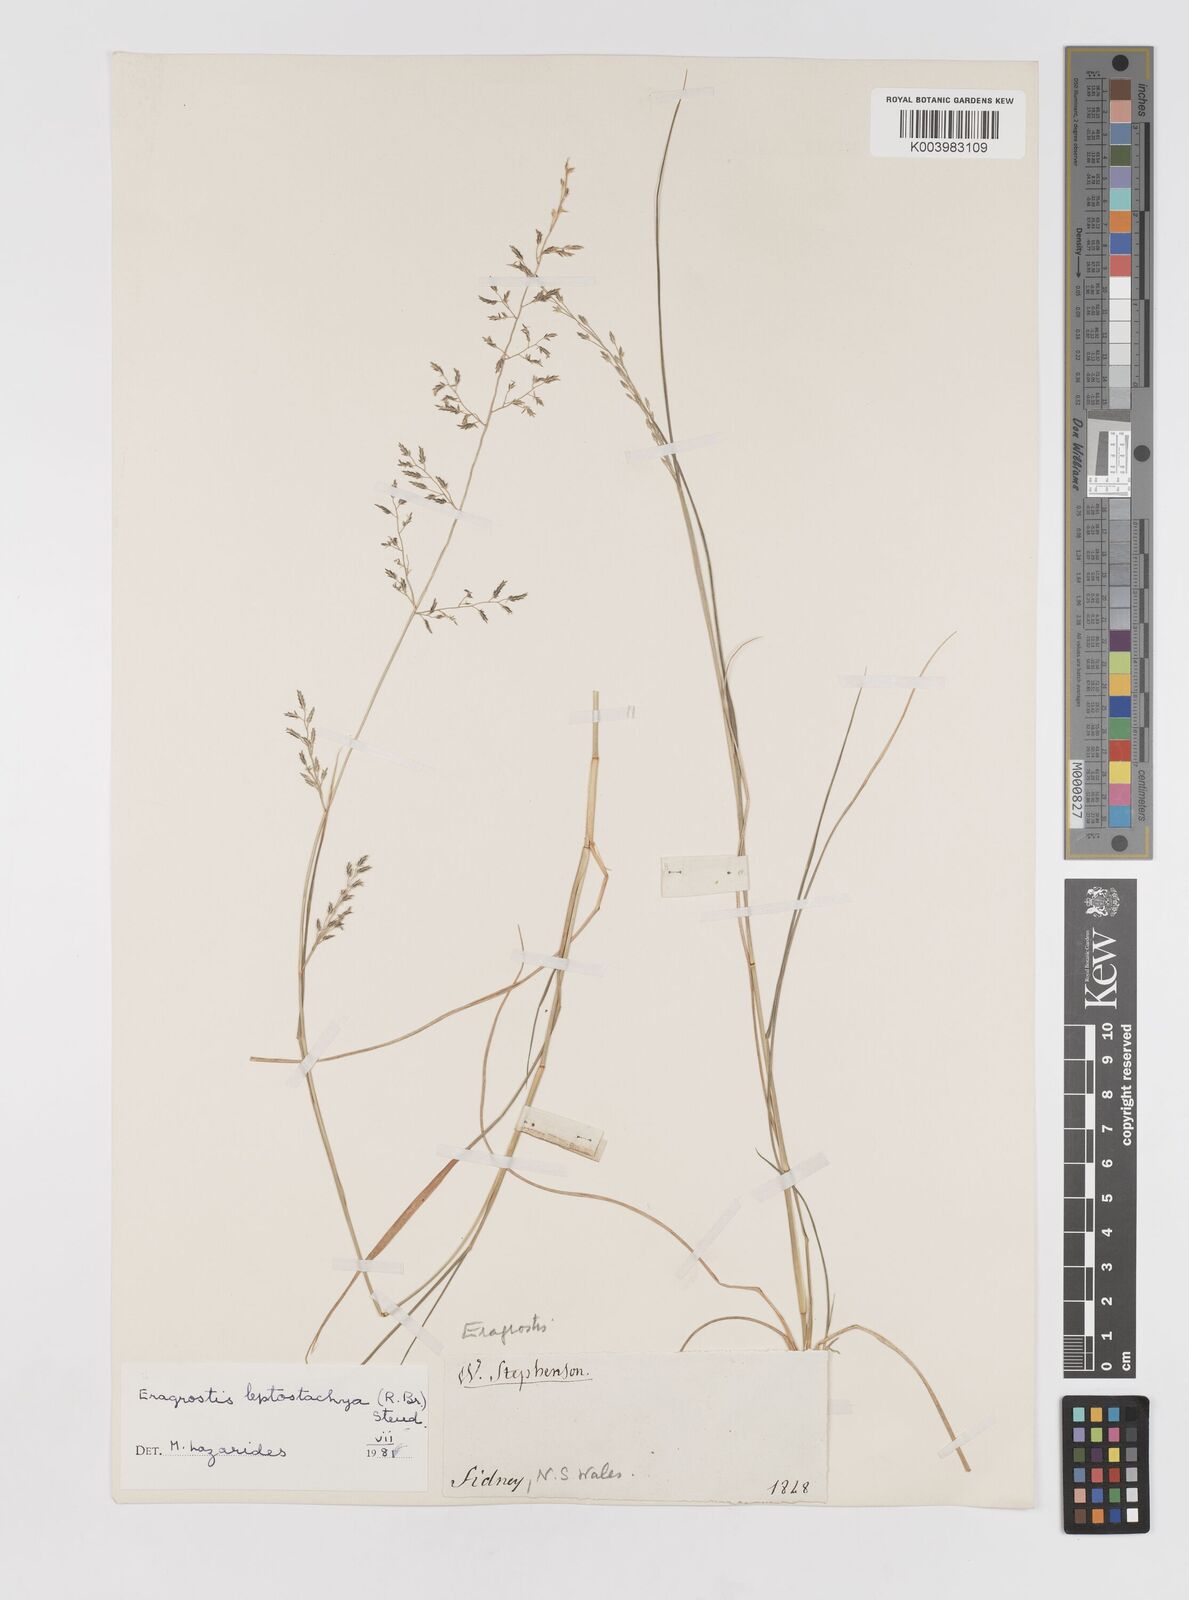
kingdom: Plantae
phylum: Tracheophyta
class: Liliopsida
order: Poales
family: Poaceae
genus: Eragrostis
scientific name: Eragrostis leptostachya
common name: Australian lovegrass
